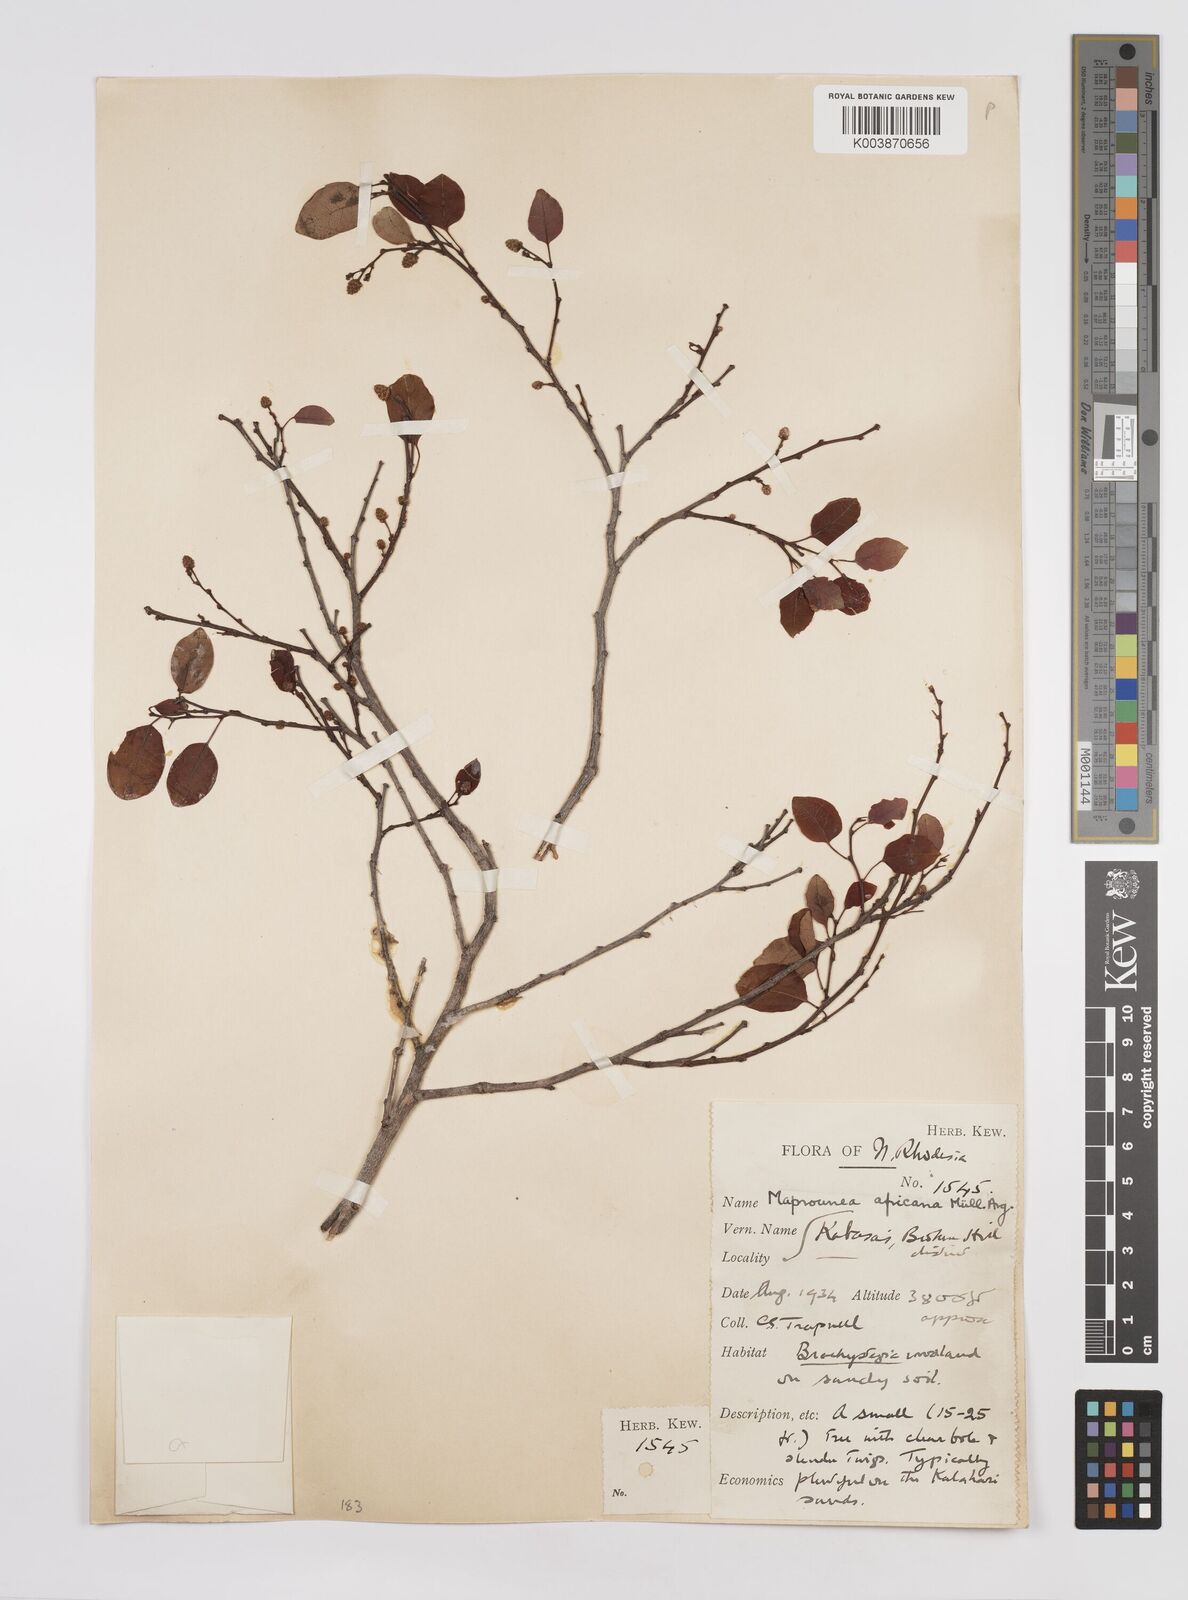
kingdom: Plantae
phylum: Tracheophyta
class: Magnoliopsida
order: Malpighiales
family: Euphorbiaceae
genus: Maprounea
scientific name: Maprounea africana
